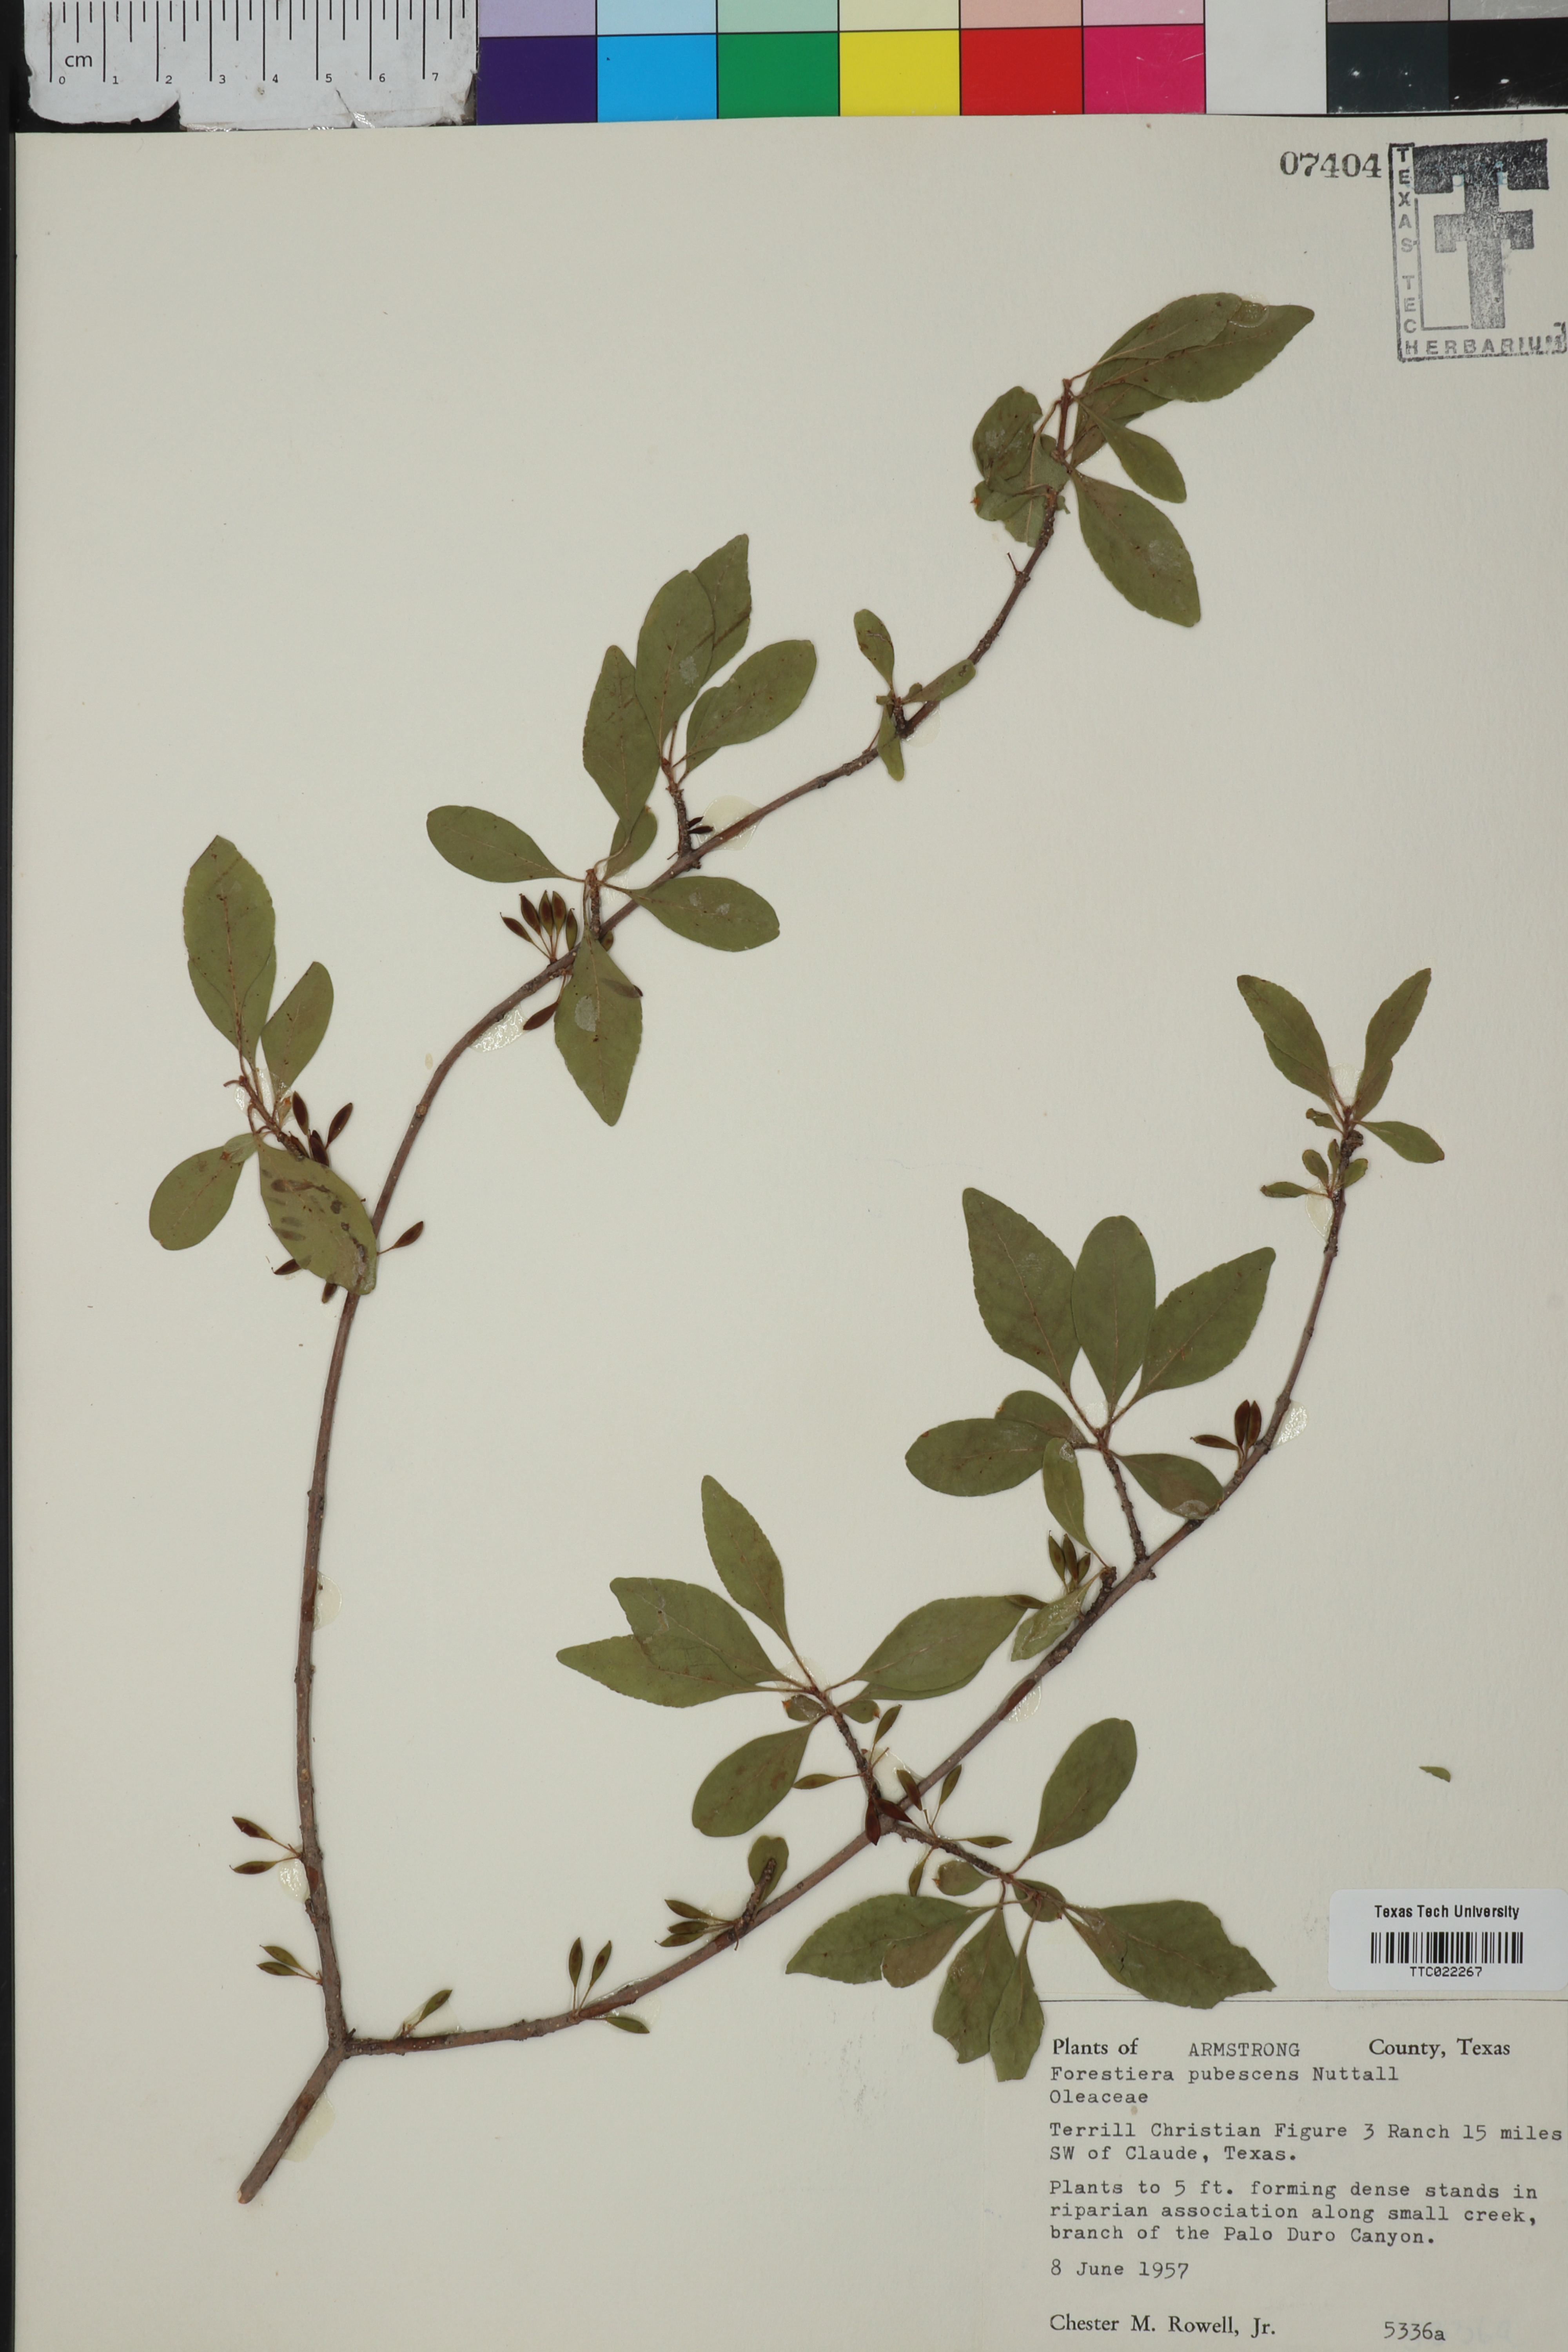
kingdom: Plantae
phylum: Tracheophyta
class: Magnoliopsida
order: Lamiales
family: Oleaceae
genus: Forestiera
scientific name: Forestiera pubescens
